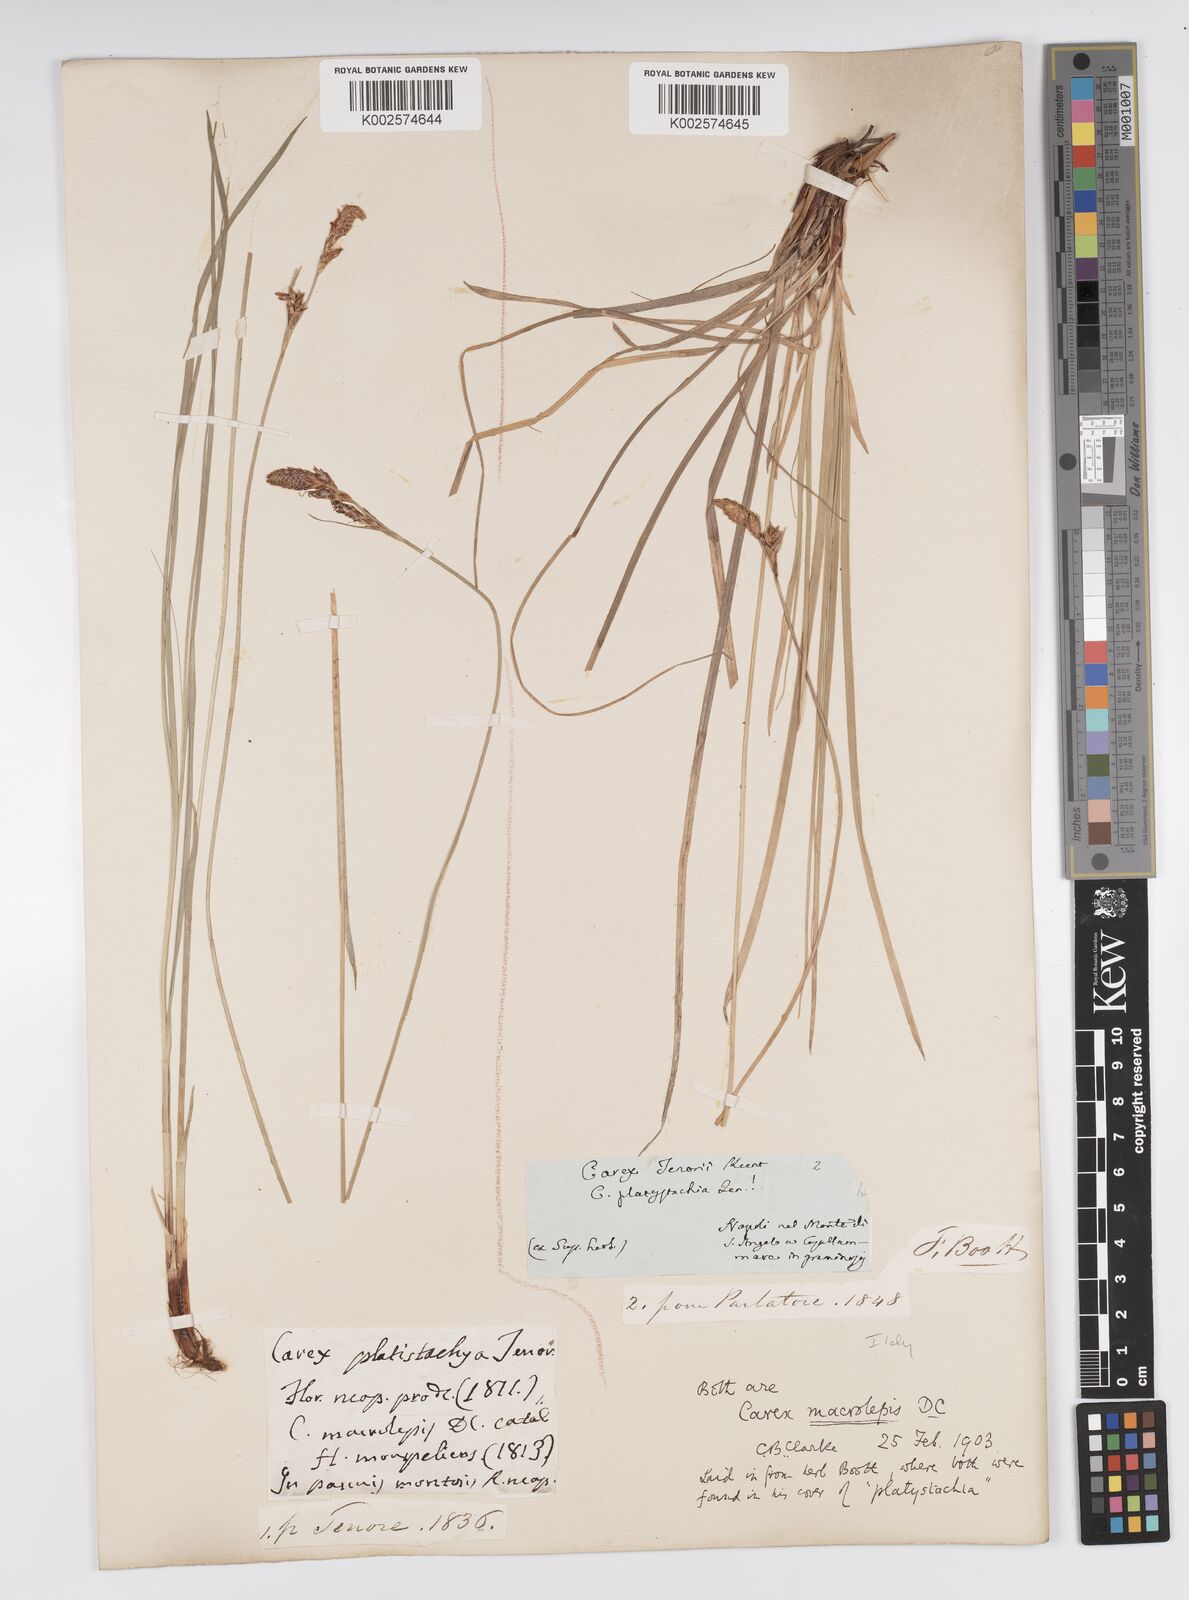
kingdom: Plantae
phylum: Tracheophyta
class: Liliopsida
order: Poales
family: Cyperaceae
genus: Carex
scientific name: Carex macrolepis
